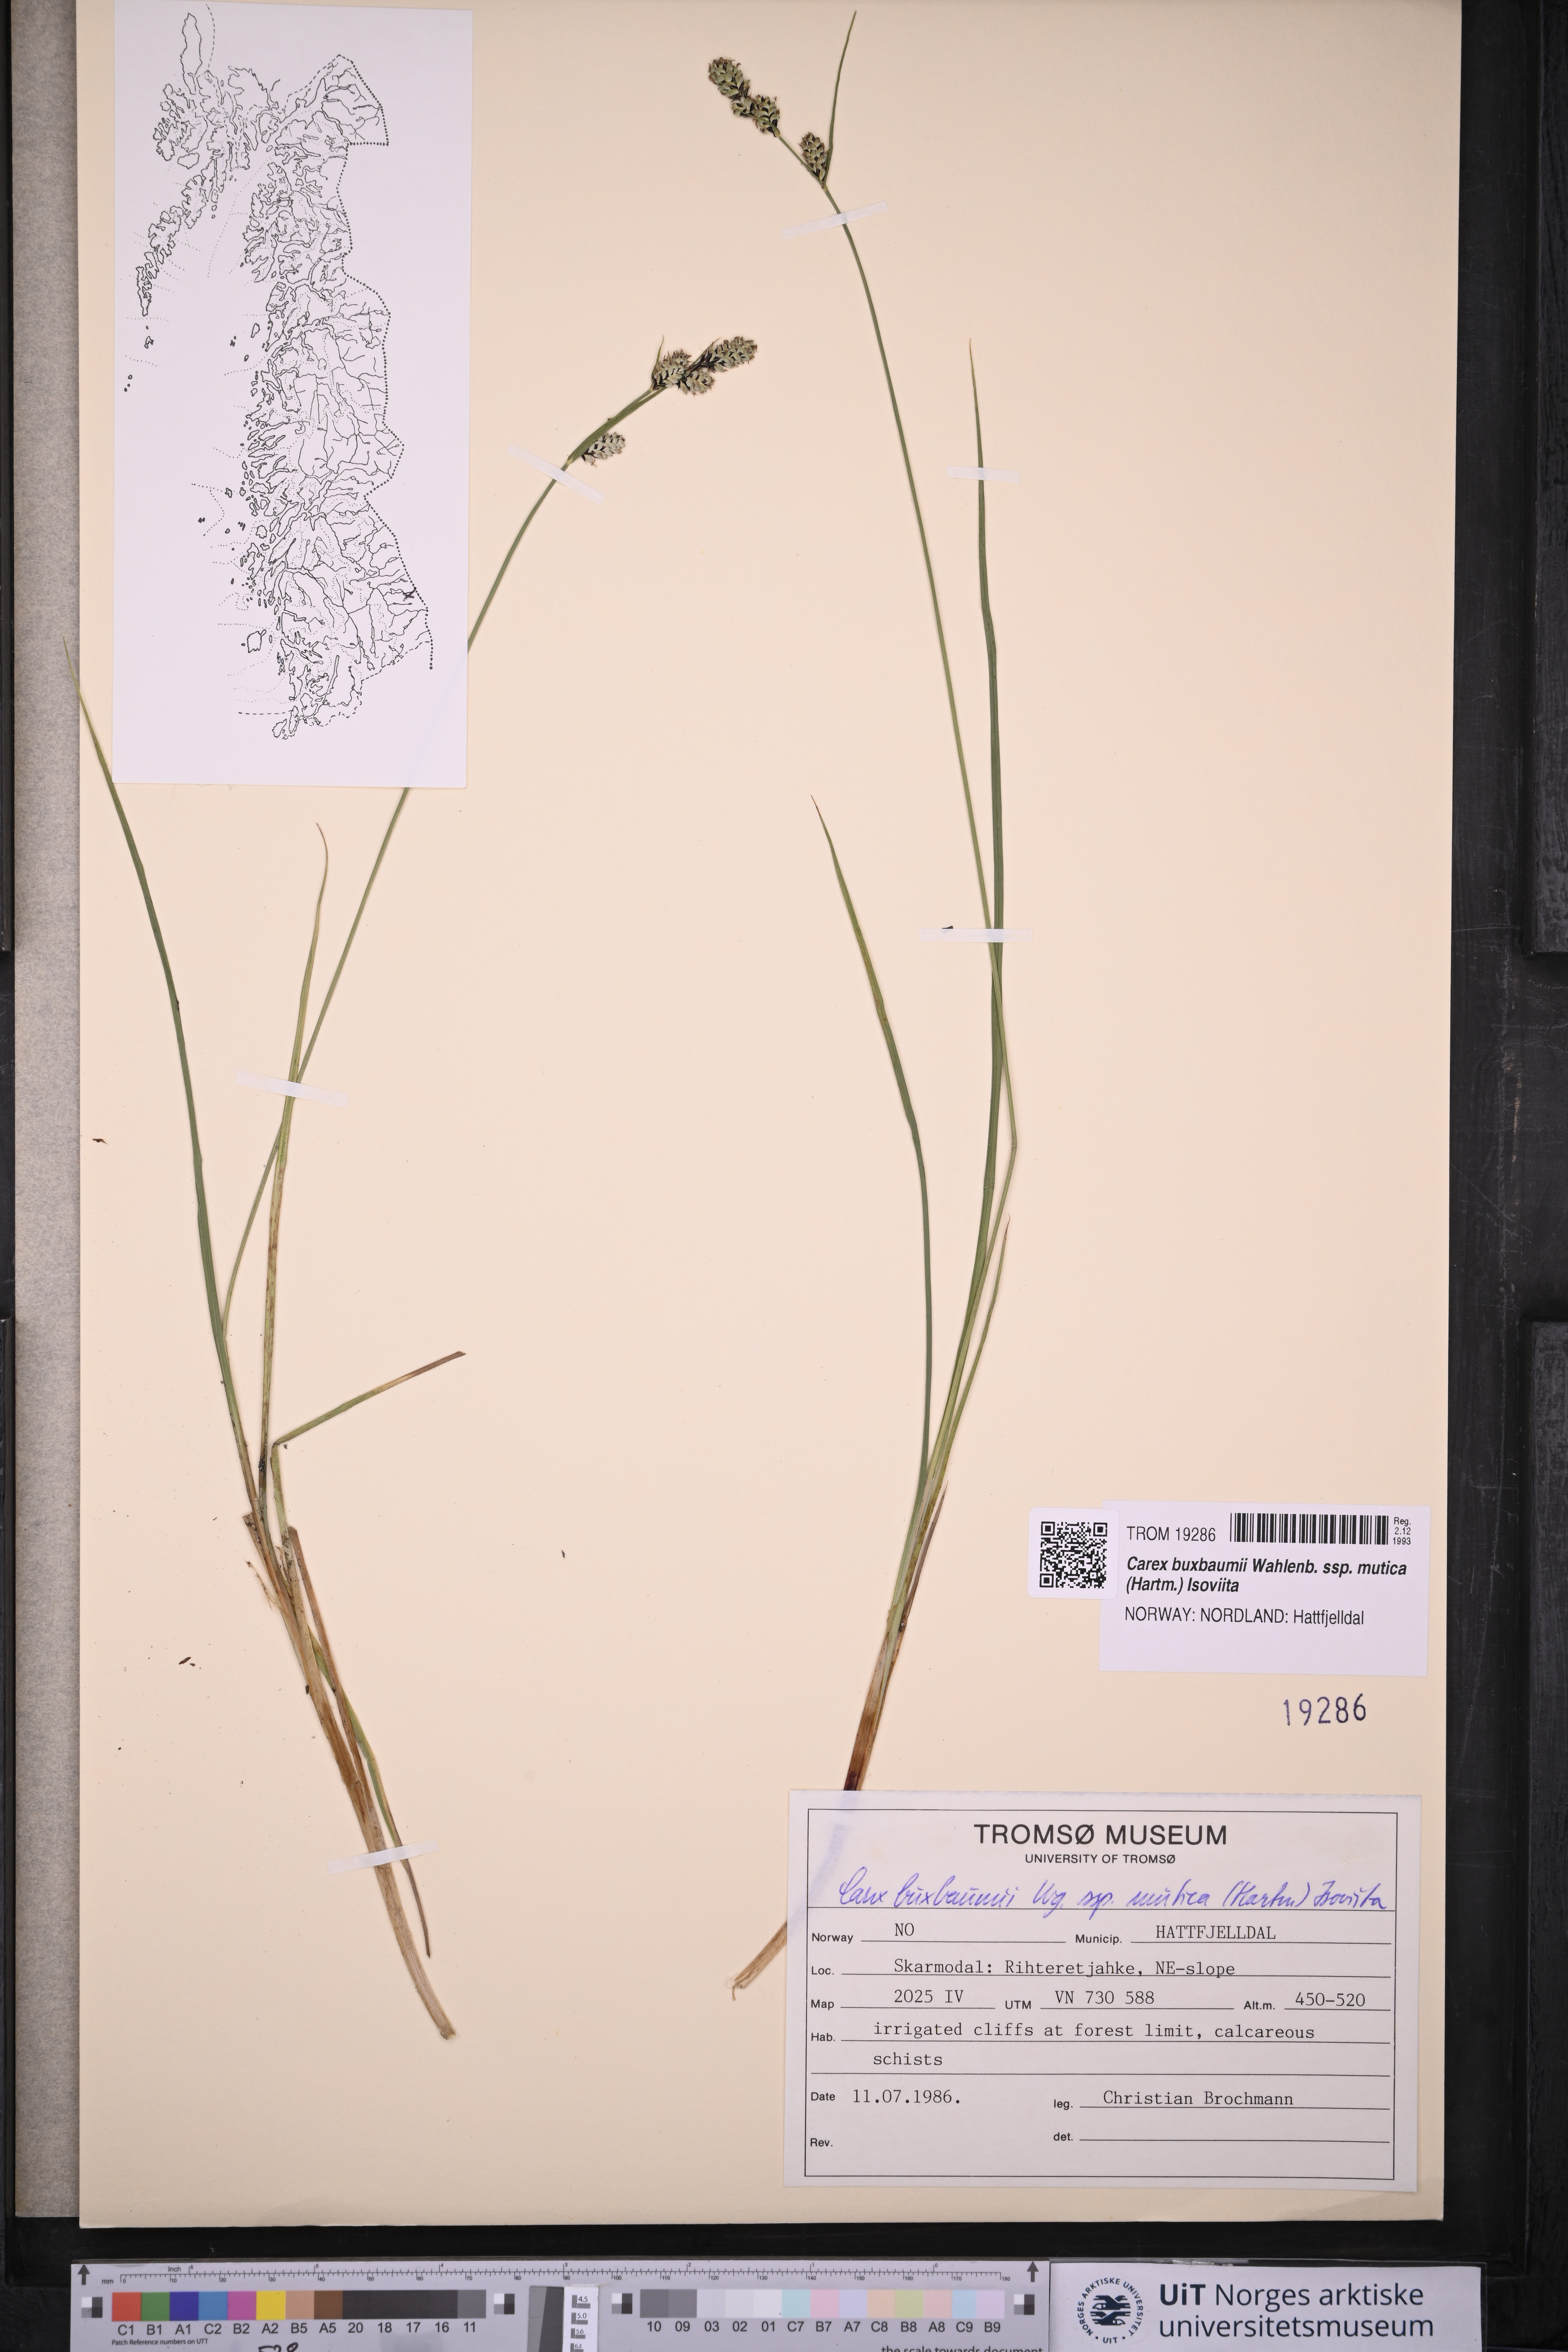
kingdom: Plantae
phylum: Tracheophyta
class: Liliopsida
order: Poales
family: Cyperaceae
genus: Carex
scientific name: Carex adelostoma
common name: Circumpolar sedge
